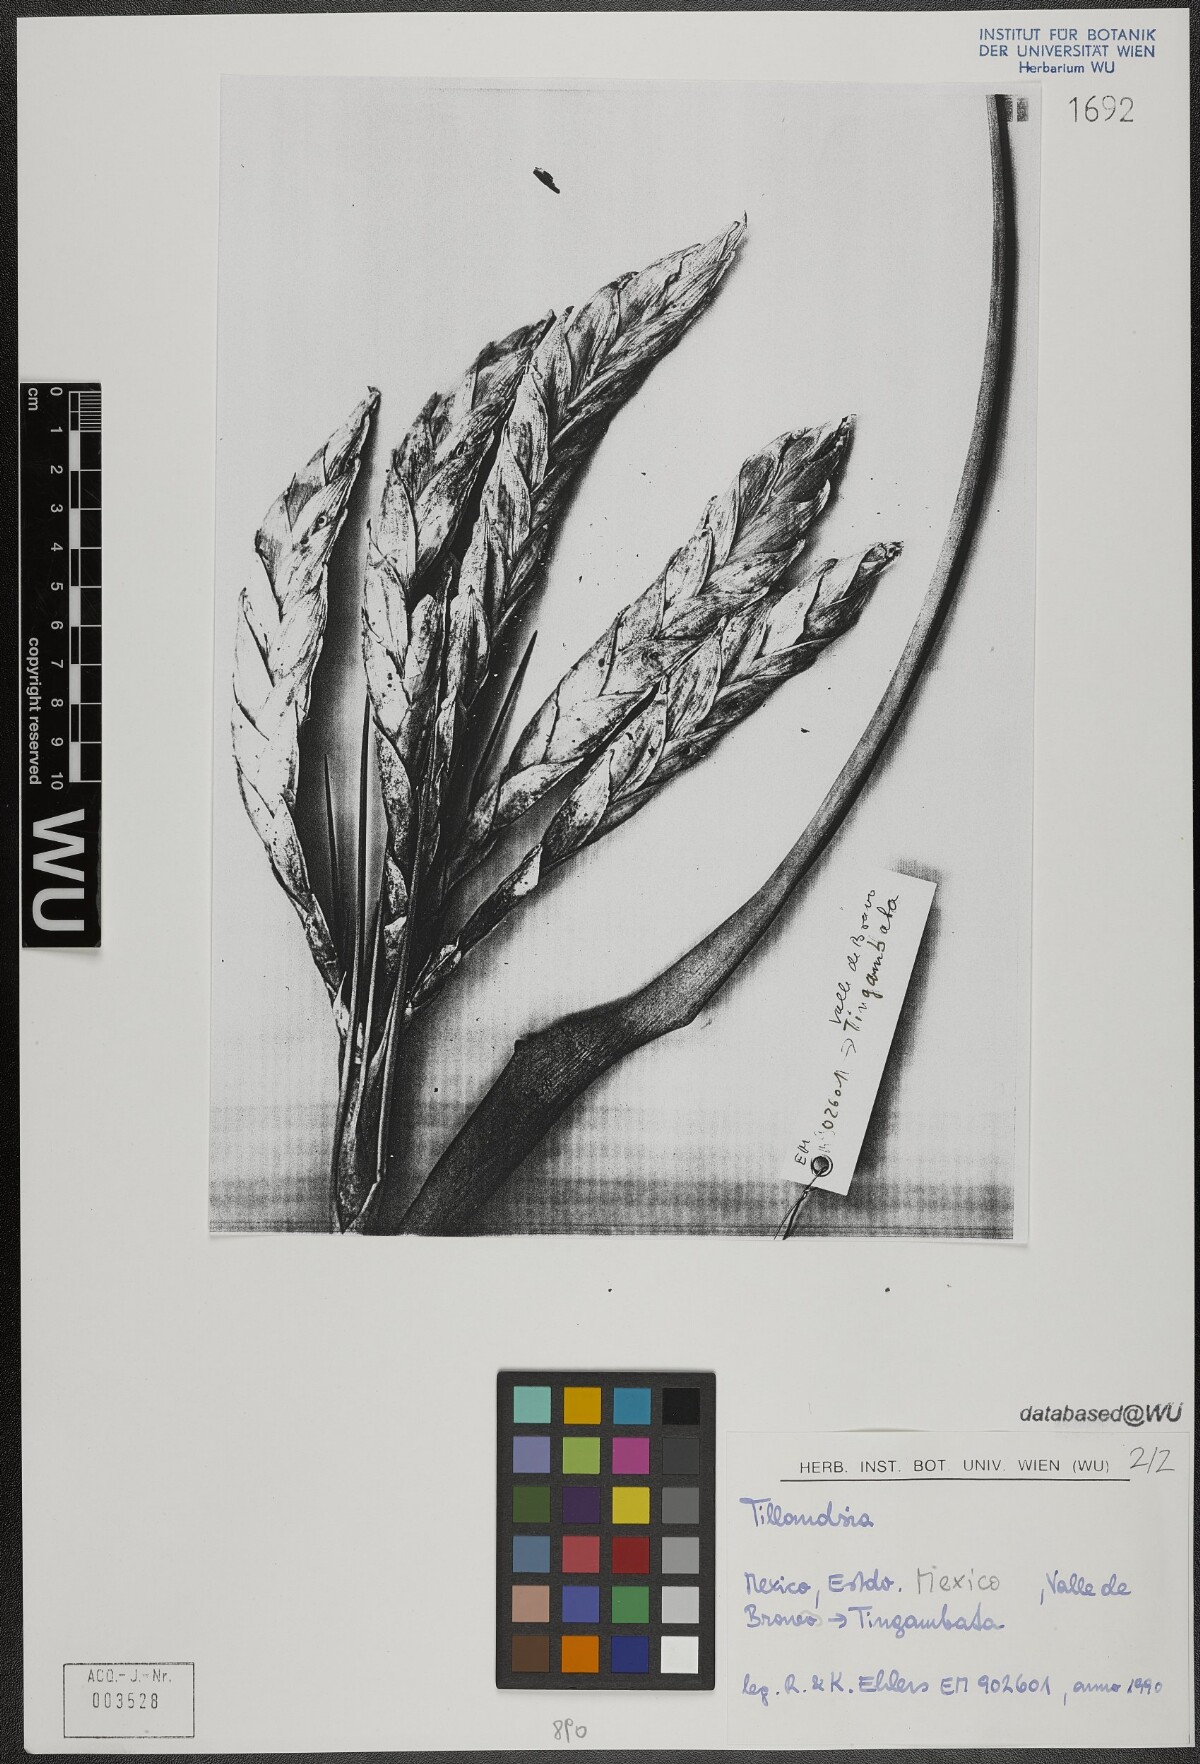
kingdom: Plantae
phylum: Tracheophyta
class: Liliopsida
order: Poales
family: Bromeliaceae
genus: Tillandsia
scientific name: Tillandsia fasciculata
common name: Giant airplant
